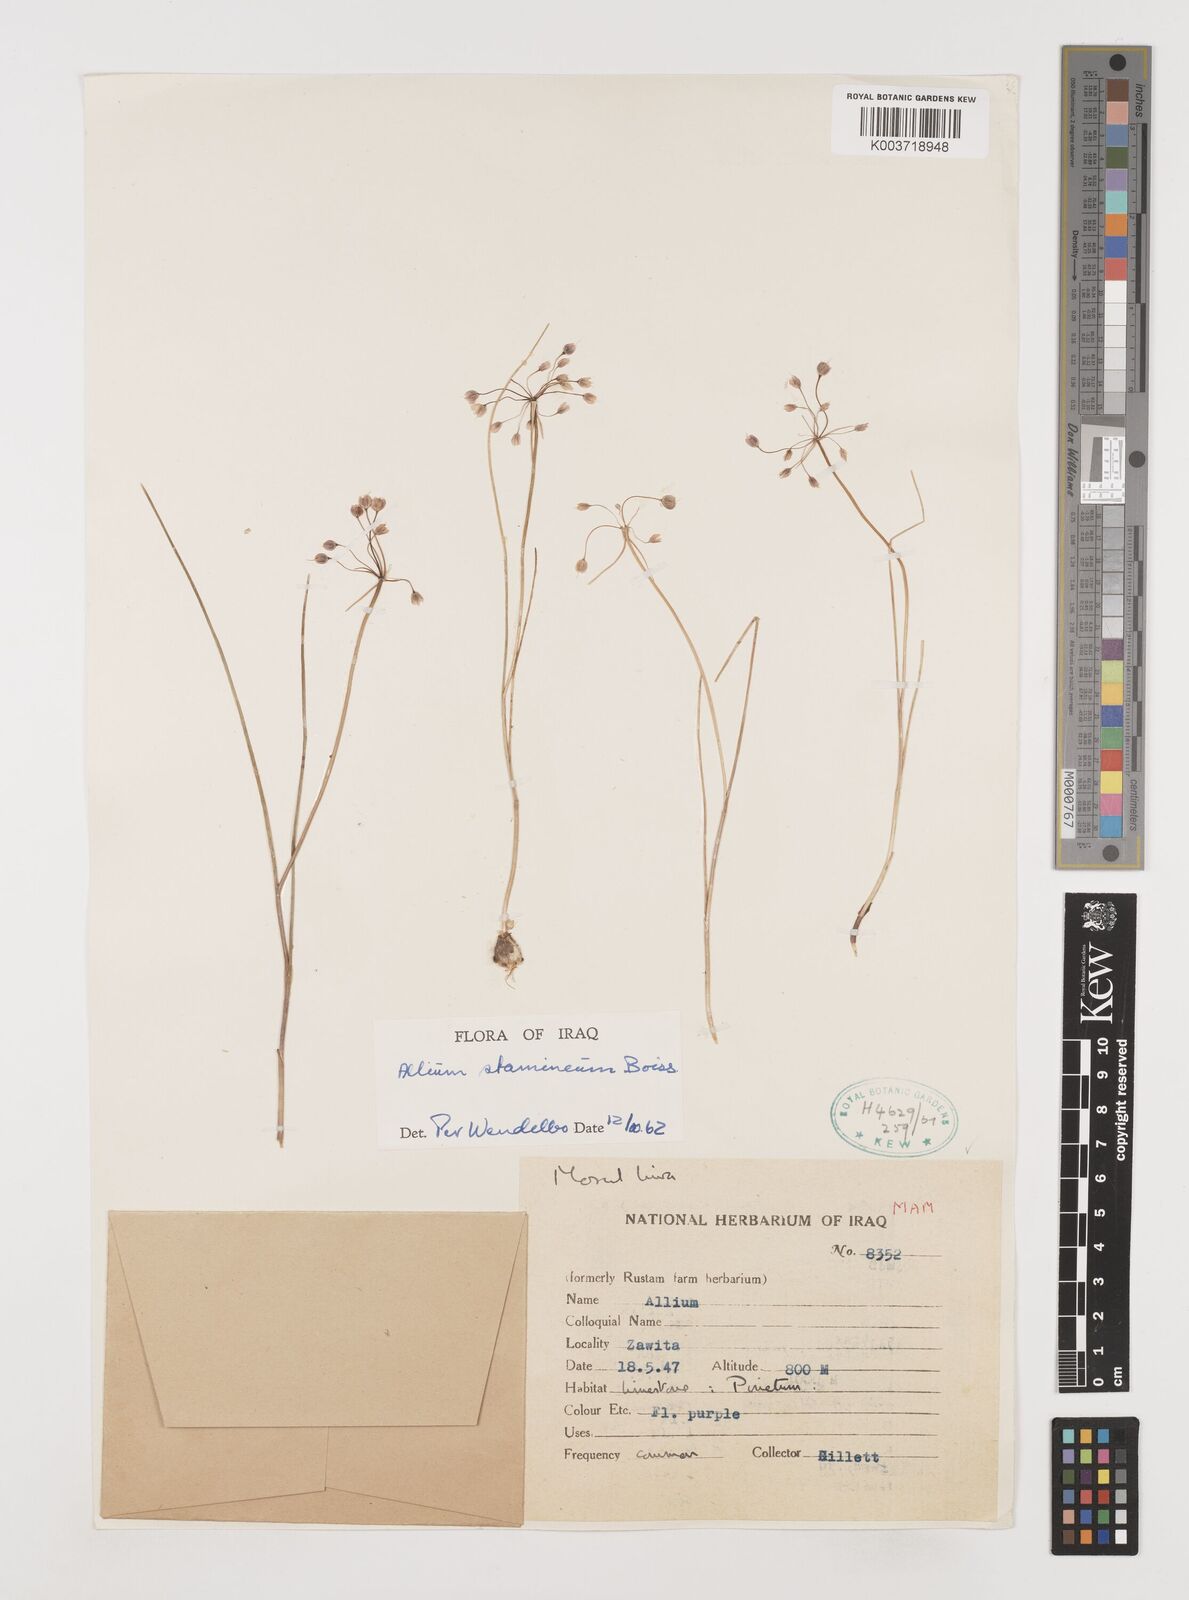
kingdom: Plantae
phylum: Tracheophyta
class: Liliopsida
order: Asparagales
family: Amaryllidaceae
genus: Allium
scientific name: Allium stamineum
